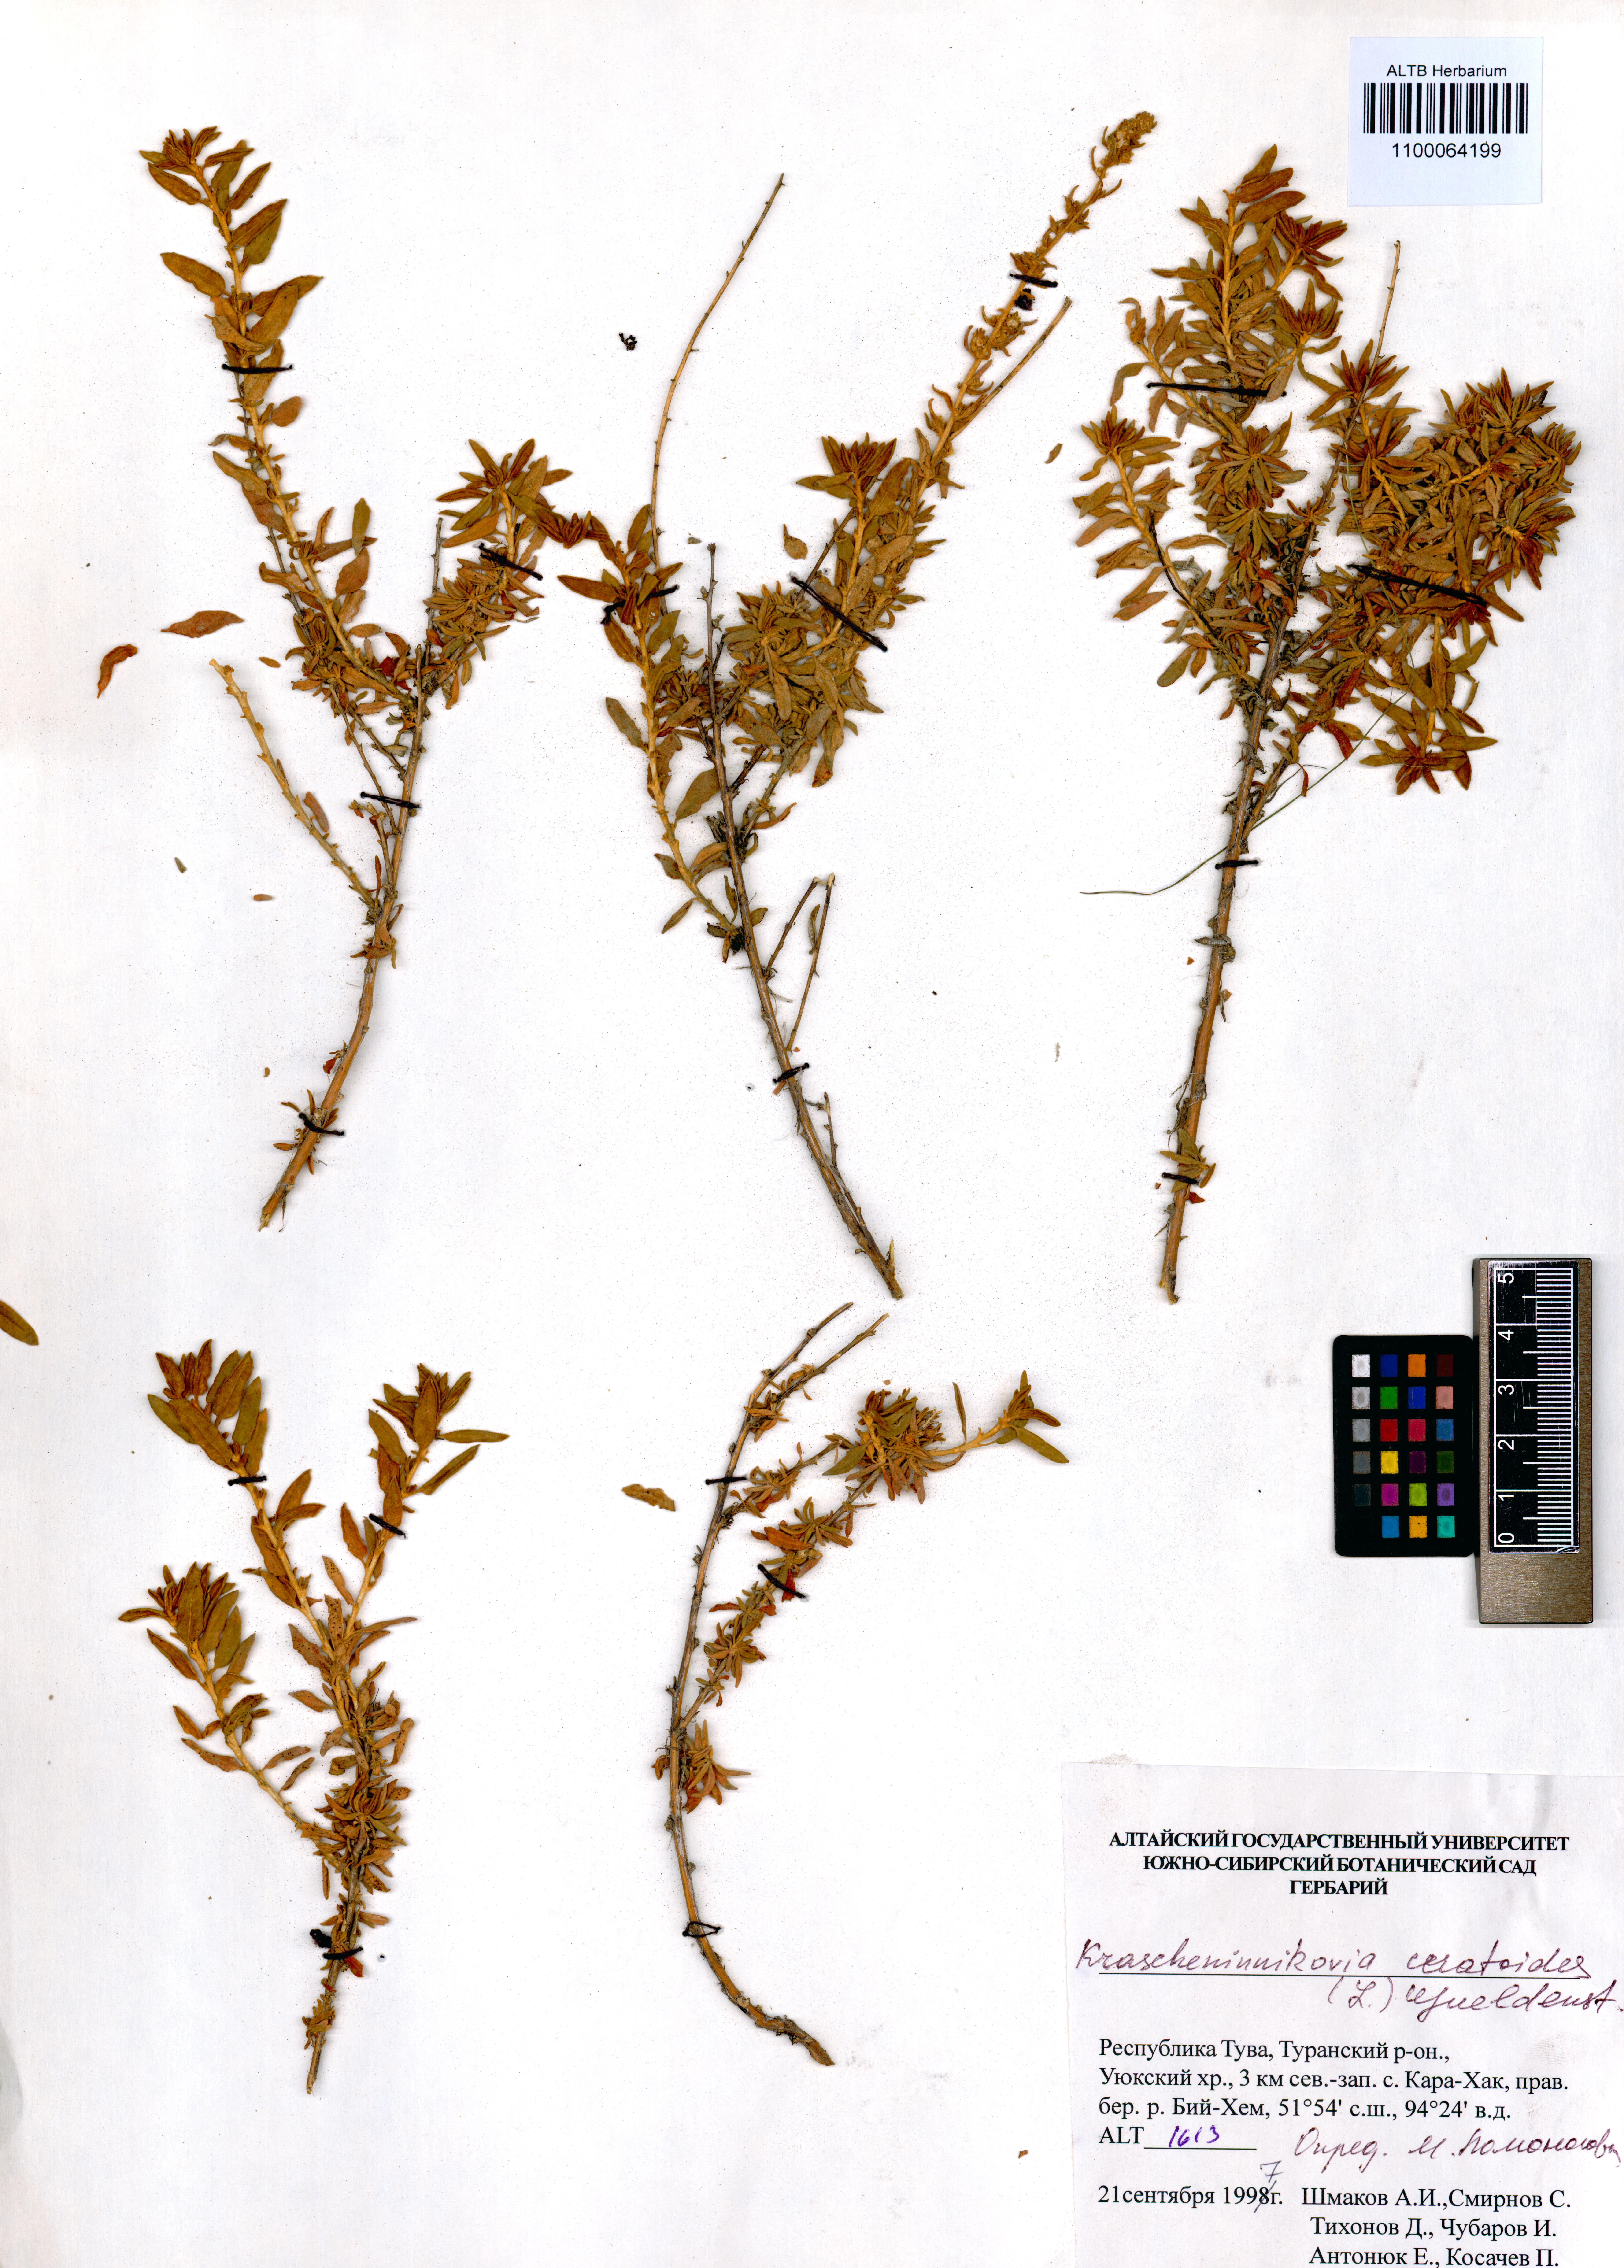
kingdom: Plantae
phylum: Tracheophyta
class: Magnoliopsida
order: Caryophyllales
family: Amaranthaceae
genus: Krascheninnikovia
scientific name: Krascheninnikovia ceratoides
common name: Pamirian winterfat
